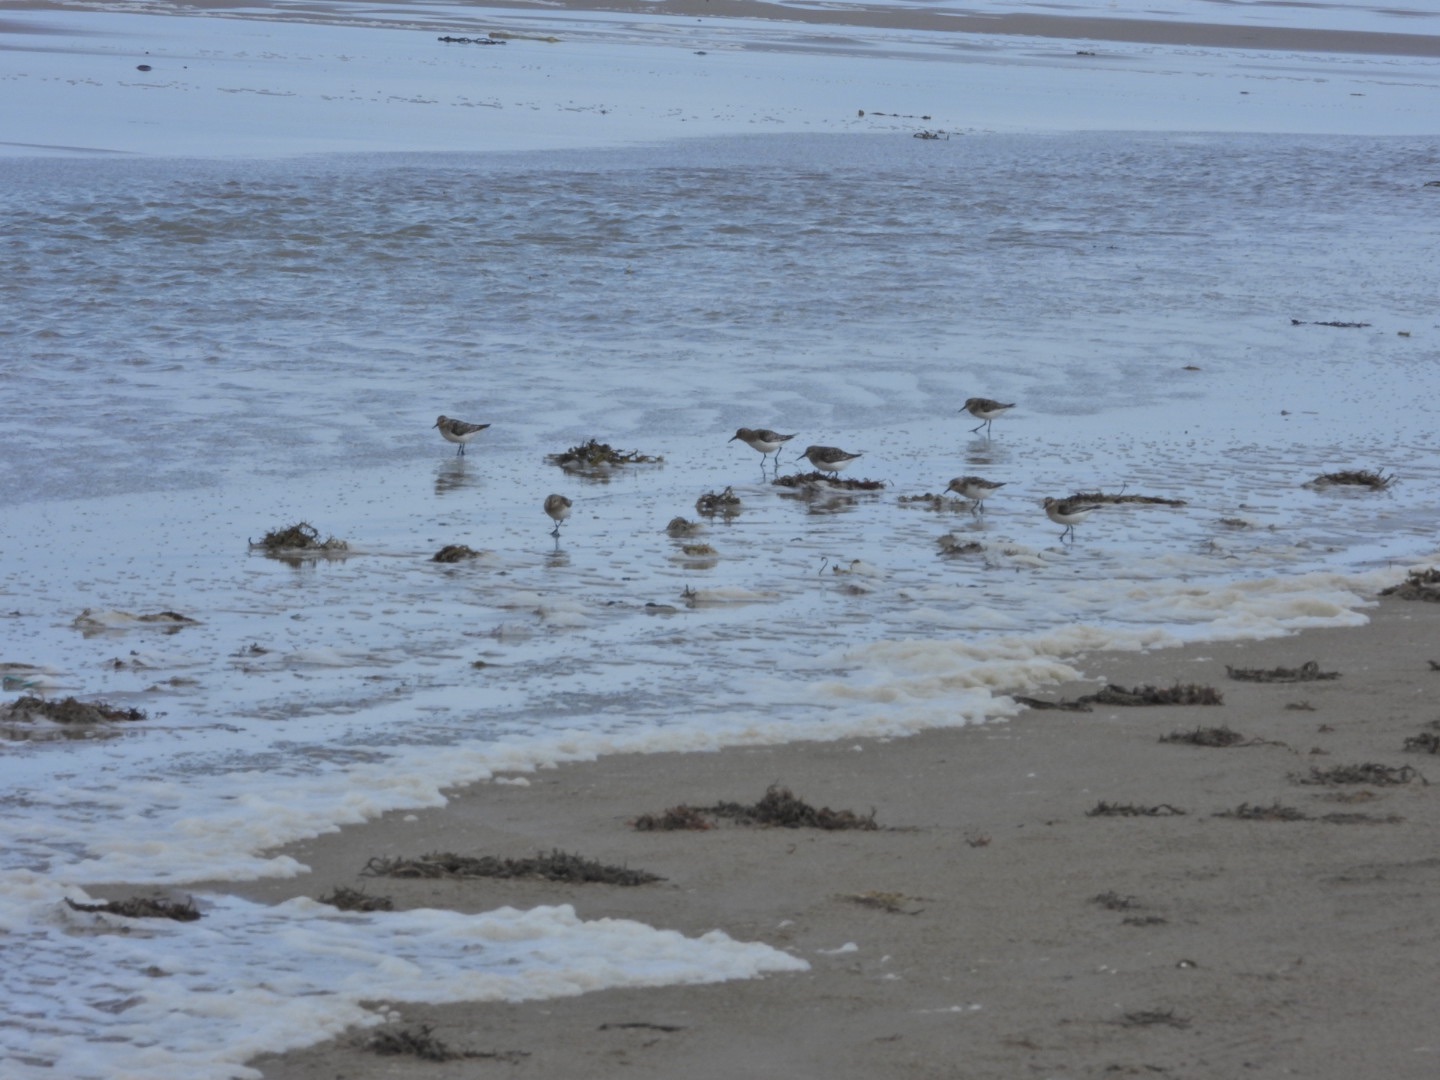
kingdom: Animalia
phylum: Chordata
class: Aves
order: Charadriiformes
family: Scolopacidae
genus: Calidris
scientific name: Calidris alba
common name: Sandløber
